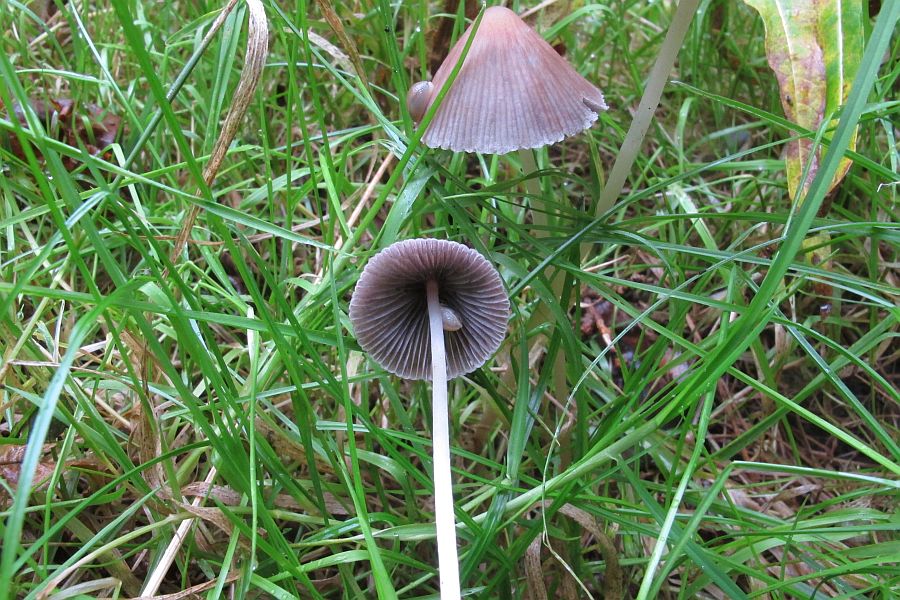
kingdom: Fungi
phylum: Basidiomycota
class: Agaricomycetes
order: Agaricales
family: Psathyrellaceae
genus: Psathyrella
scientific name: Psathyrella corrugis
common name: rødægget mørkhat
